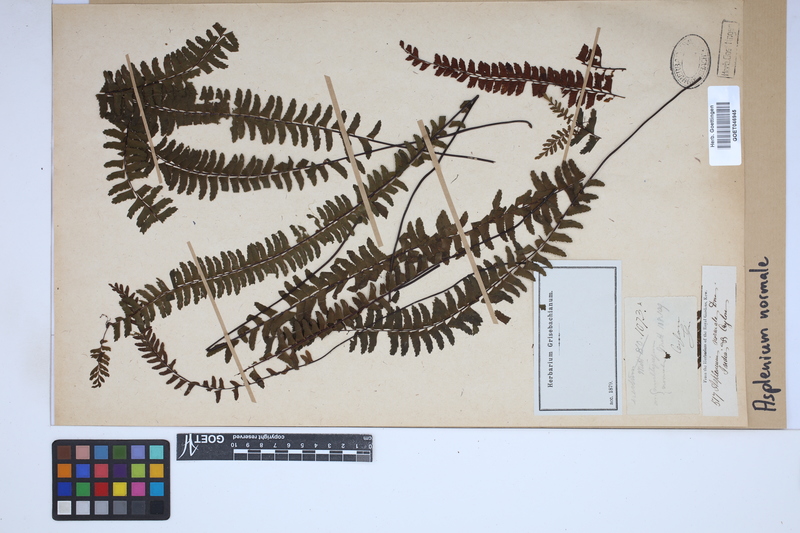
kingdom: Plantae
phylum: Tracheophyta
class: Polypodiopsida
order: Polypodiales
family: Aspleniaceae
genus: Asplenium
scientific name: Asplenium normale
